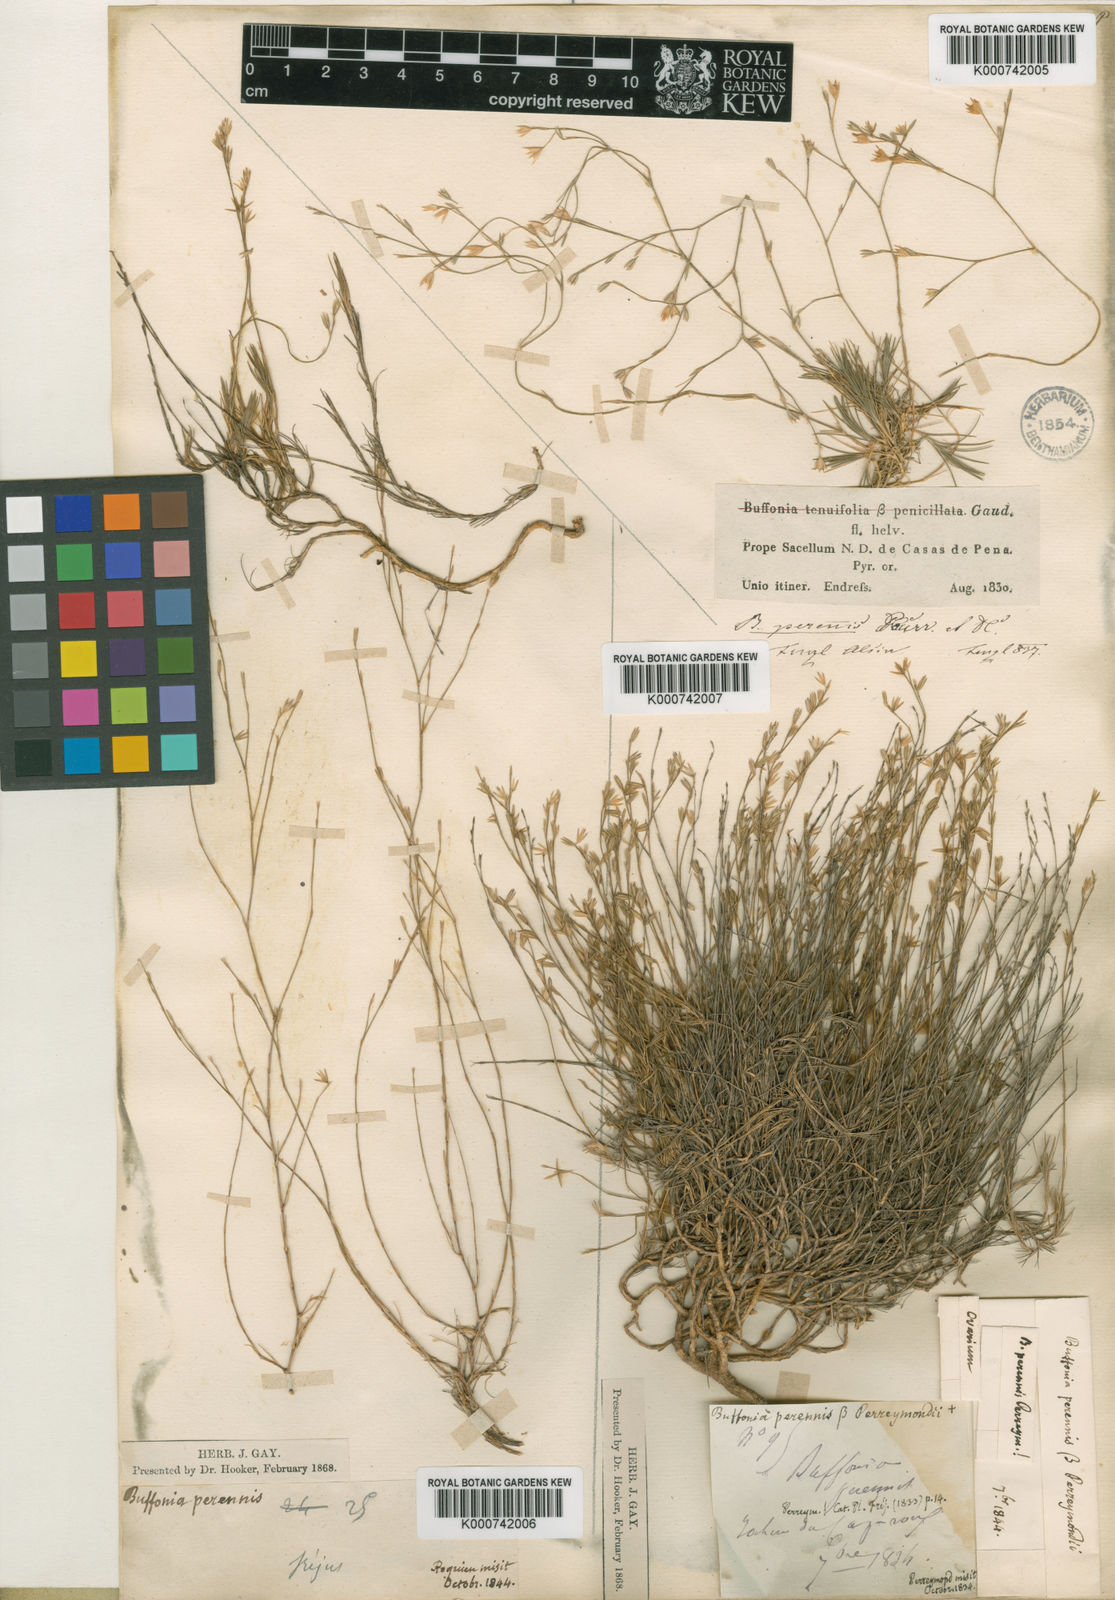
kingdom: Plantae
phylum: Tracheophyta
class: Magnoliopsida
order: Caryophyllales
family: Caryophyllaceae
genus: Bufonia
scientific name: Bufonia perennis
